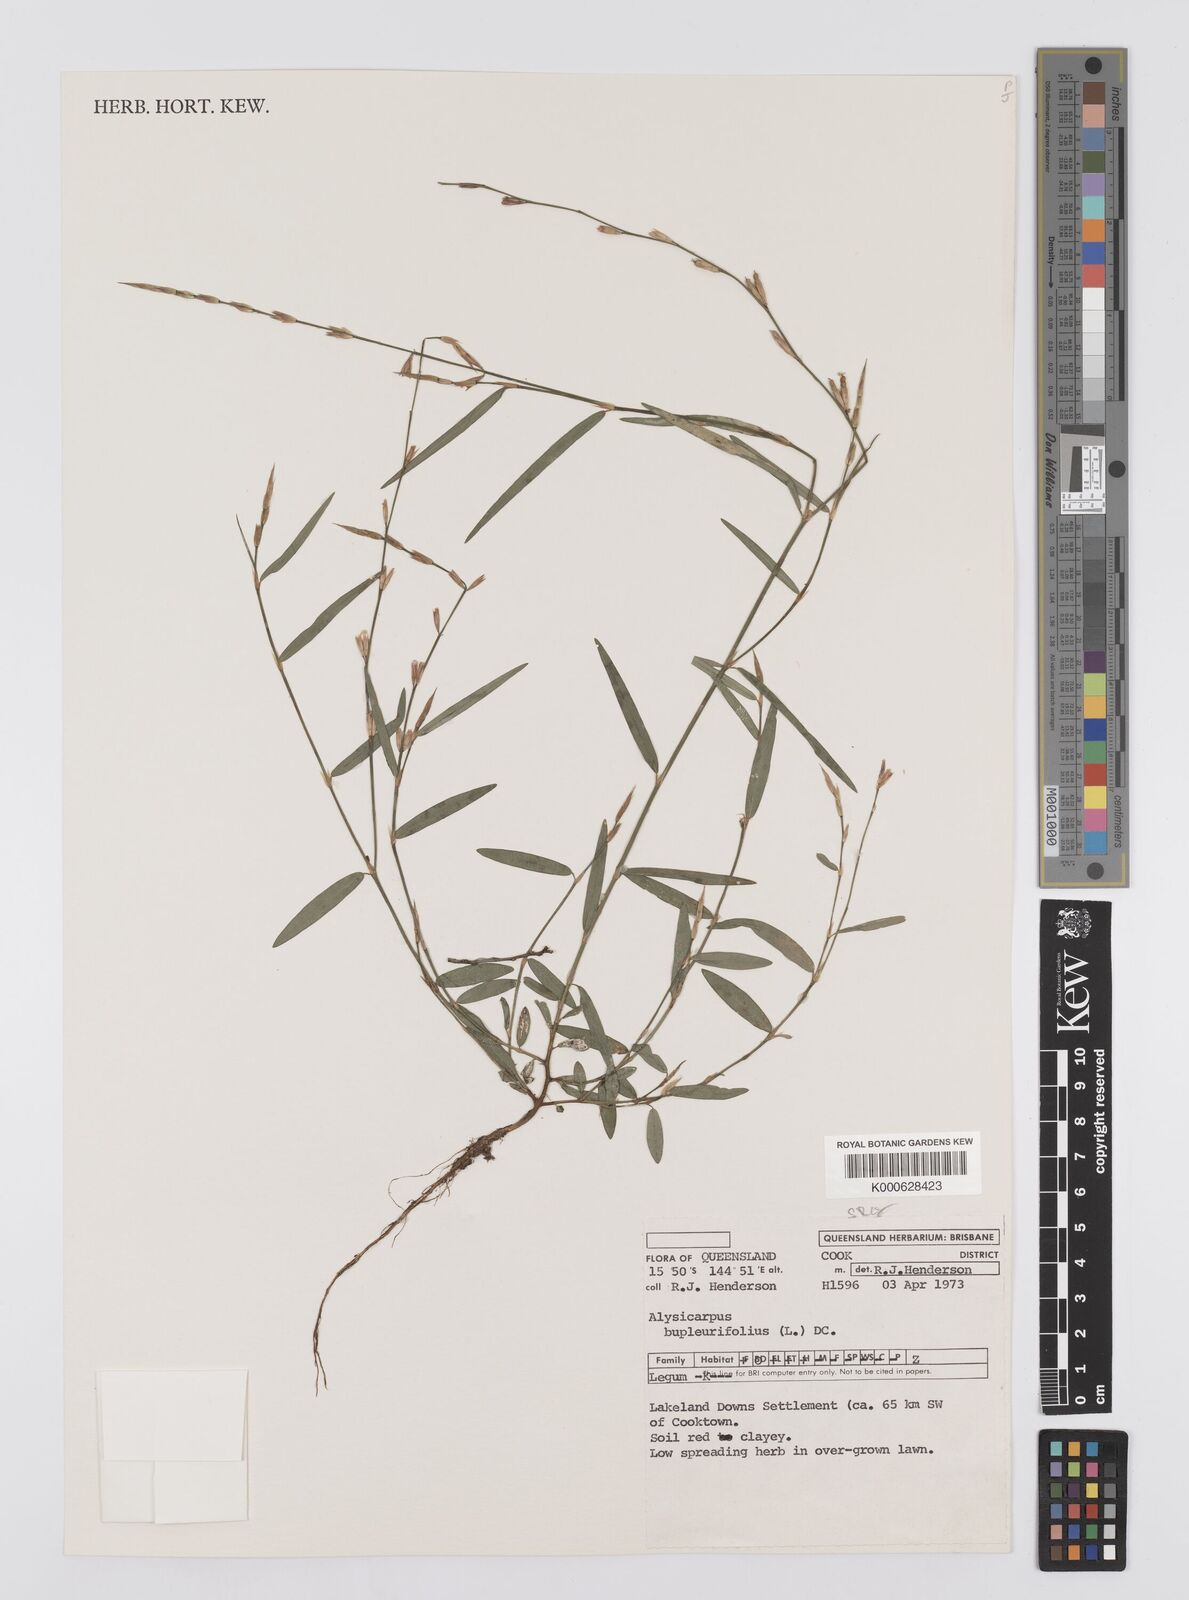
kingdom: Plantae
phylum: Tracheophyta
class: Magnoliopsida
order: Fabales
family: Fabaceae
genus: Alysicarpus
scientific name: Alysicarpus bupleurifolius
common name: Sweet alys
